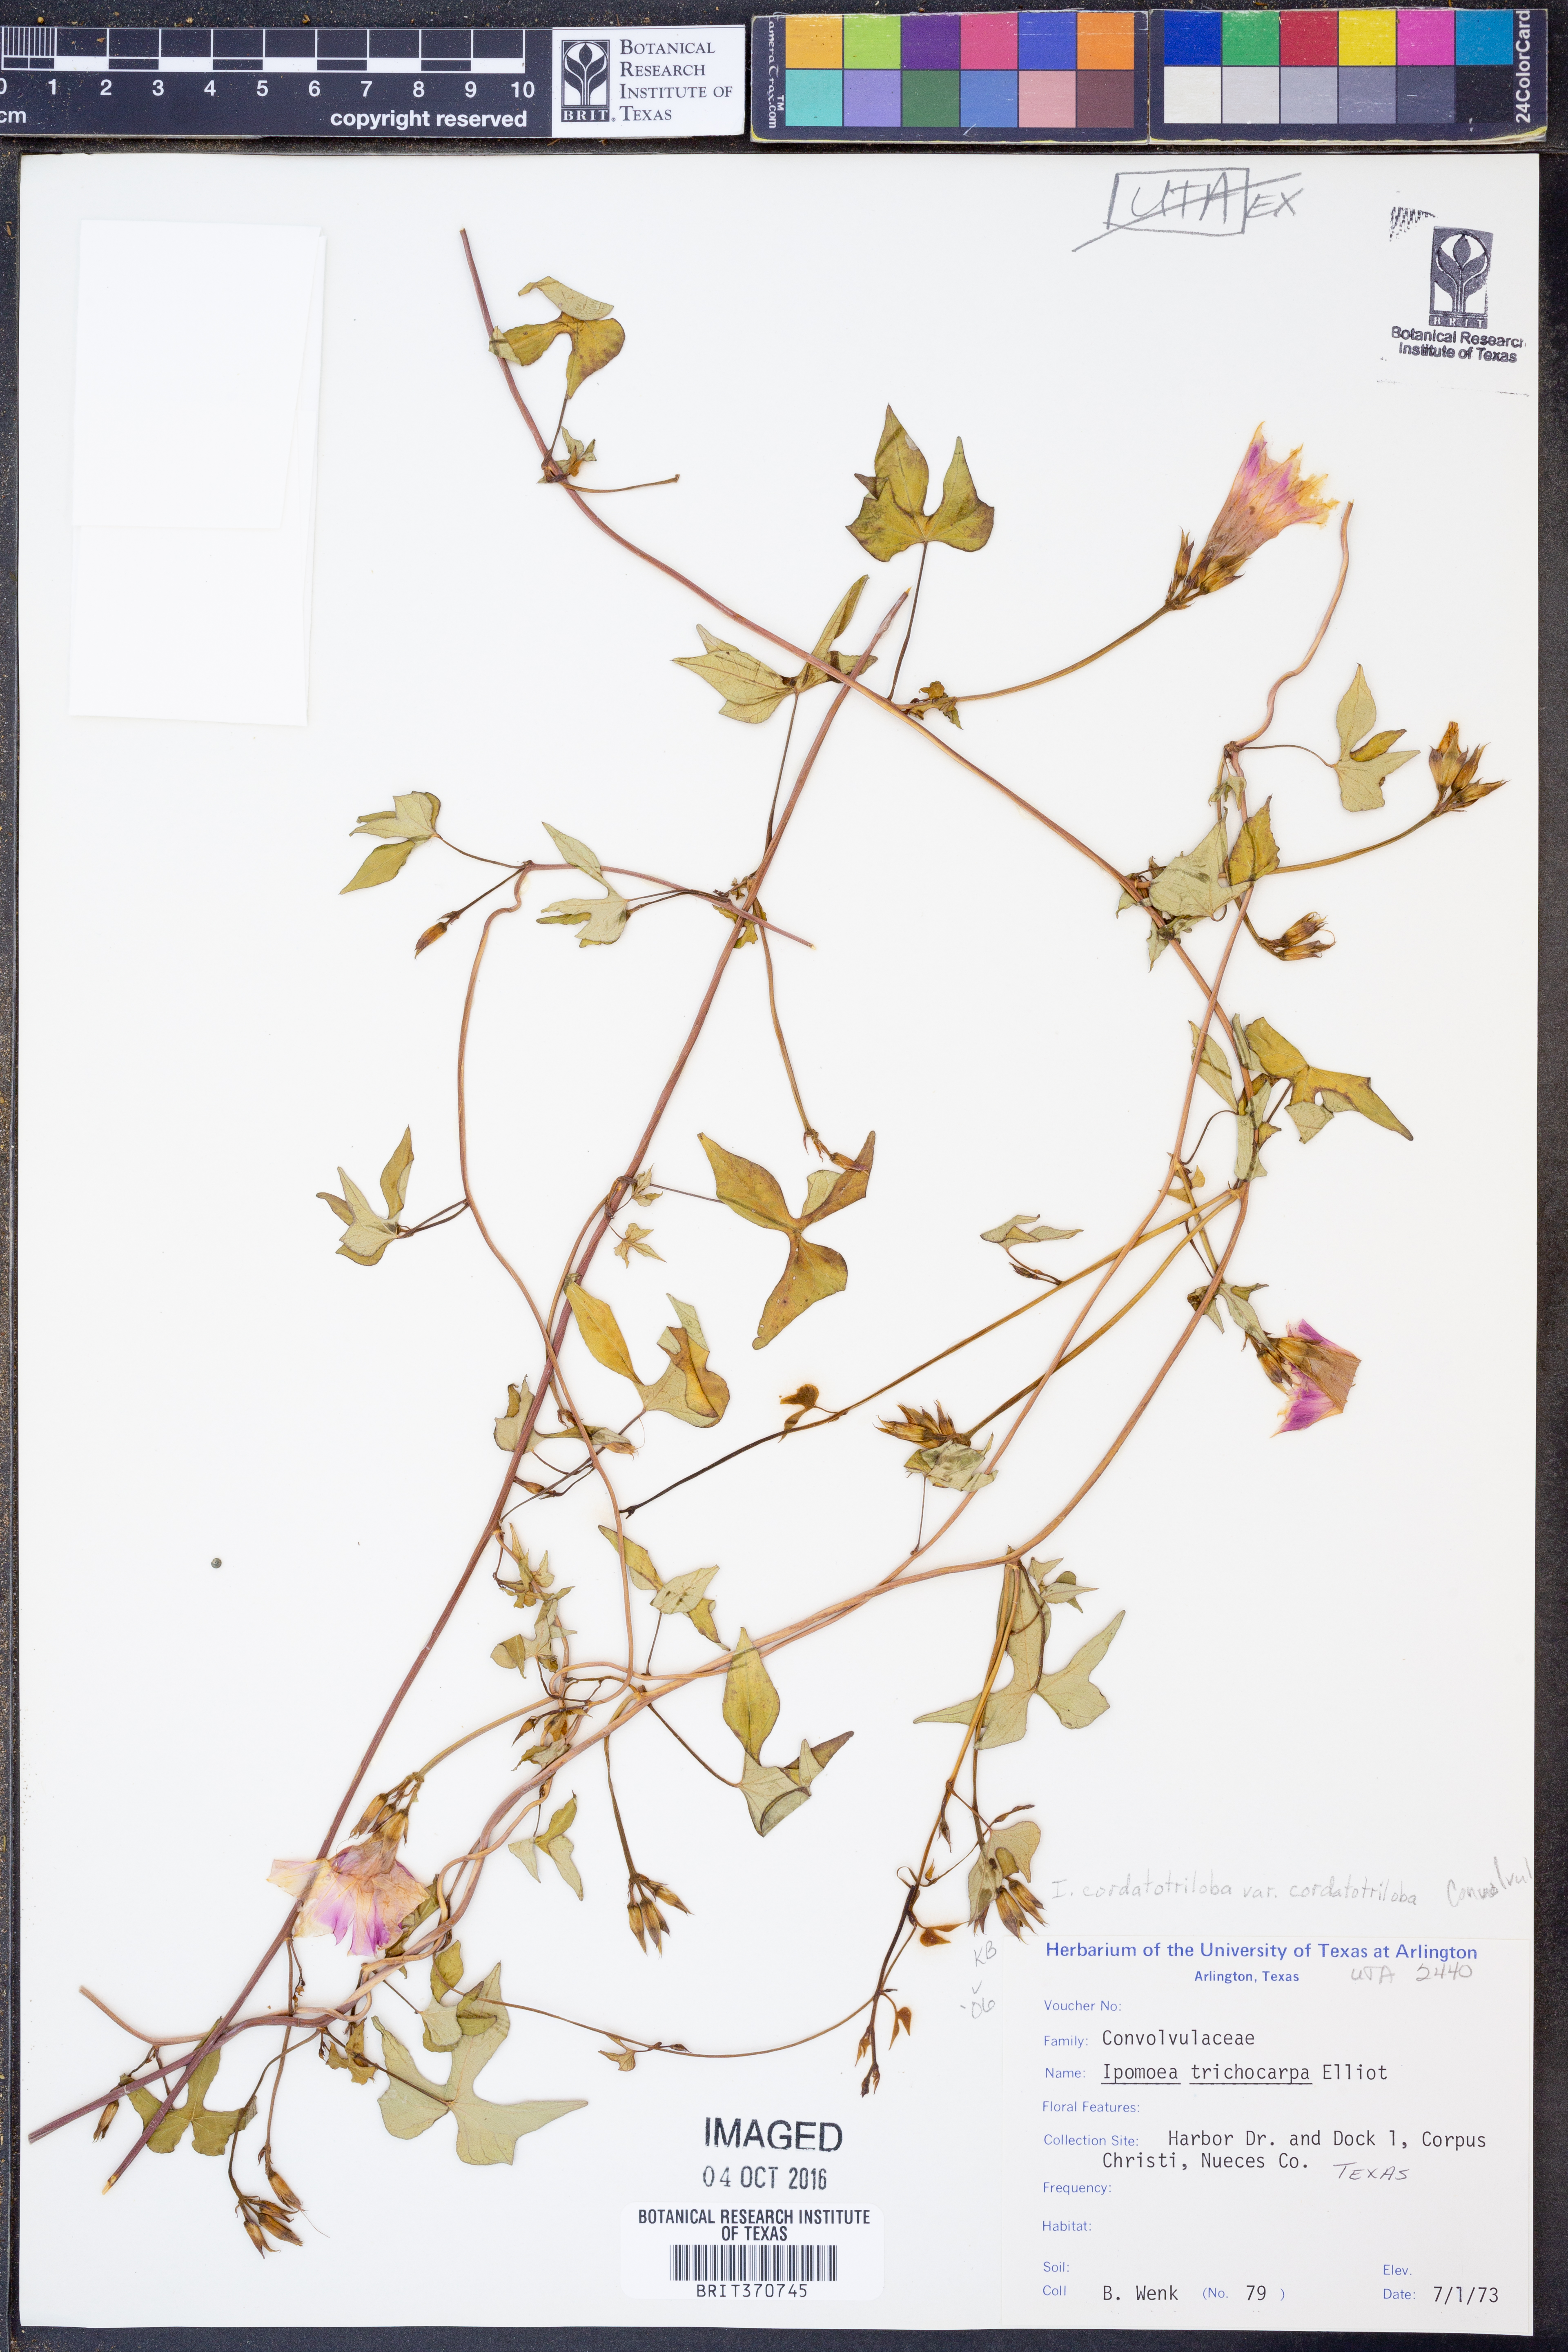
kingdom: Plantae
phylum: Tracheophyta
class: Magnoliopsida
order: Solanales
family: Convolvulaceae
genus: Ipomoea
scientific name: Ipomoea cordatotriloba
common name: Cotton morning glory
